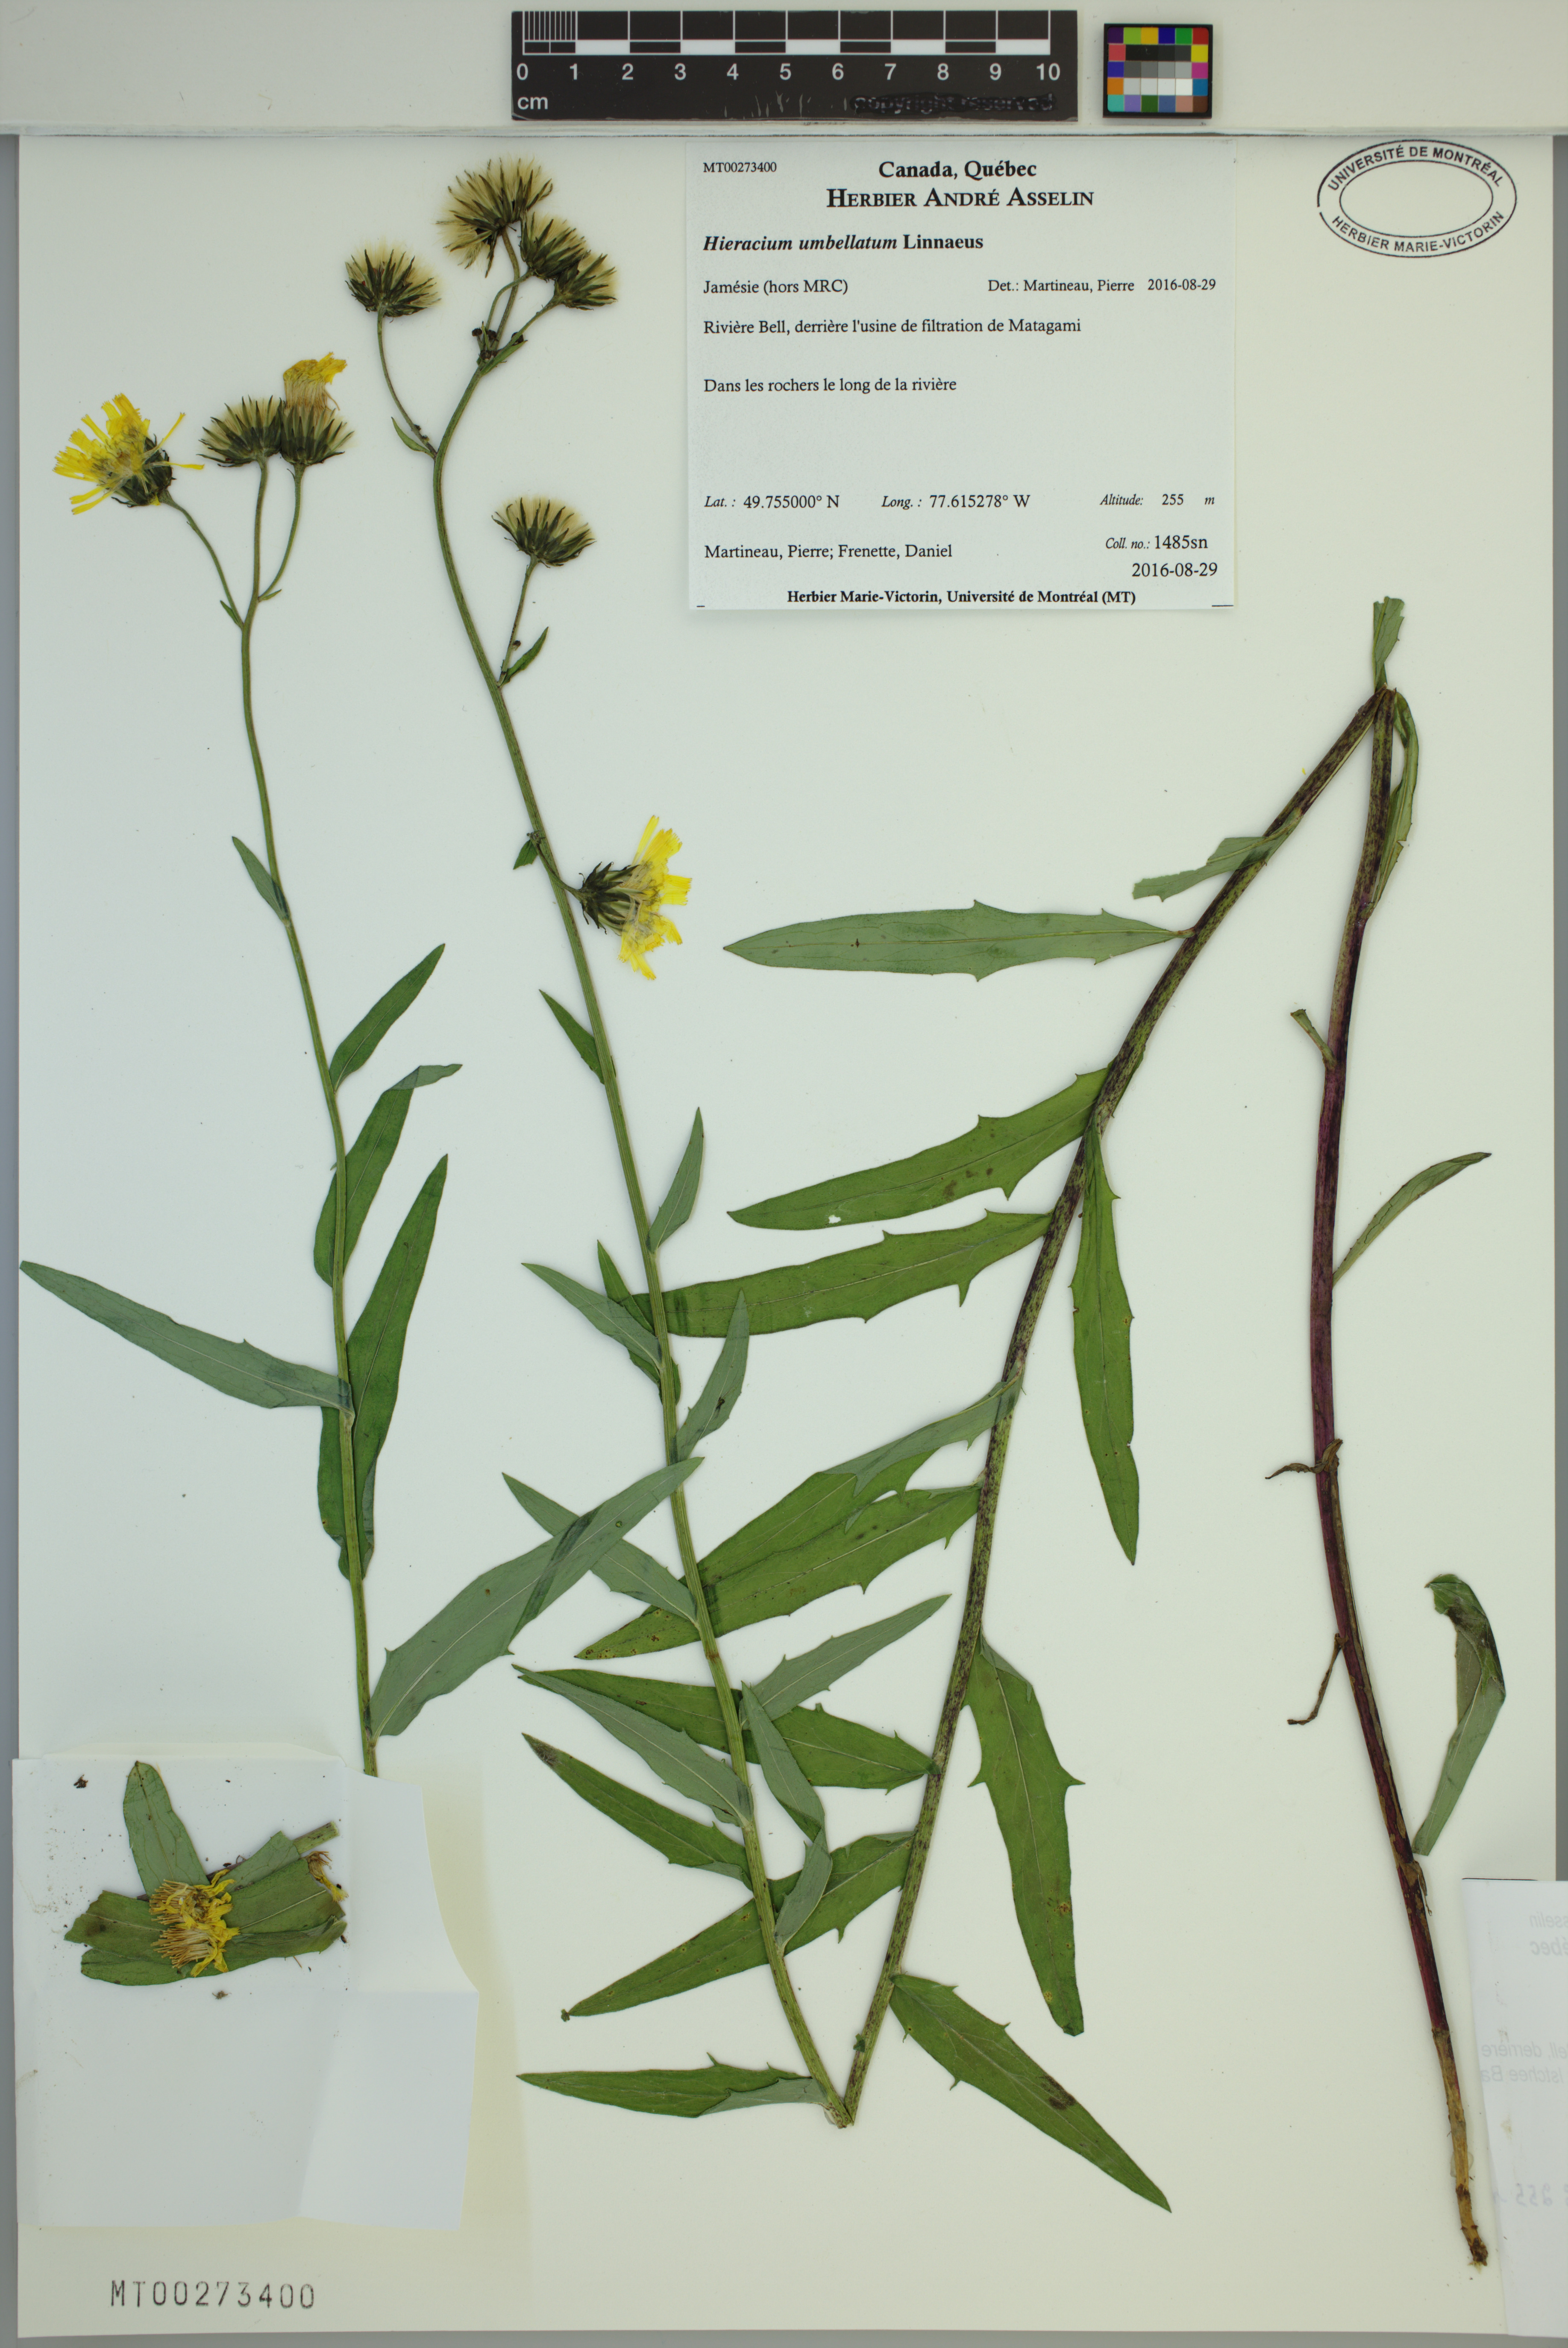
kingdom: Plantae
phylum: Tracheophyta
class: Magnoliopsida
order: Asterales
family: Asteraceae
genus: Hieracium
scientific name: Hieracium umbellatum
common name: Northern hawkweed
